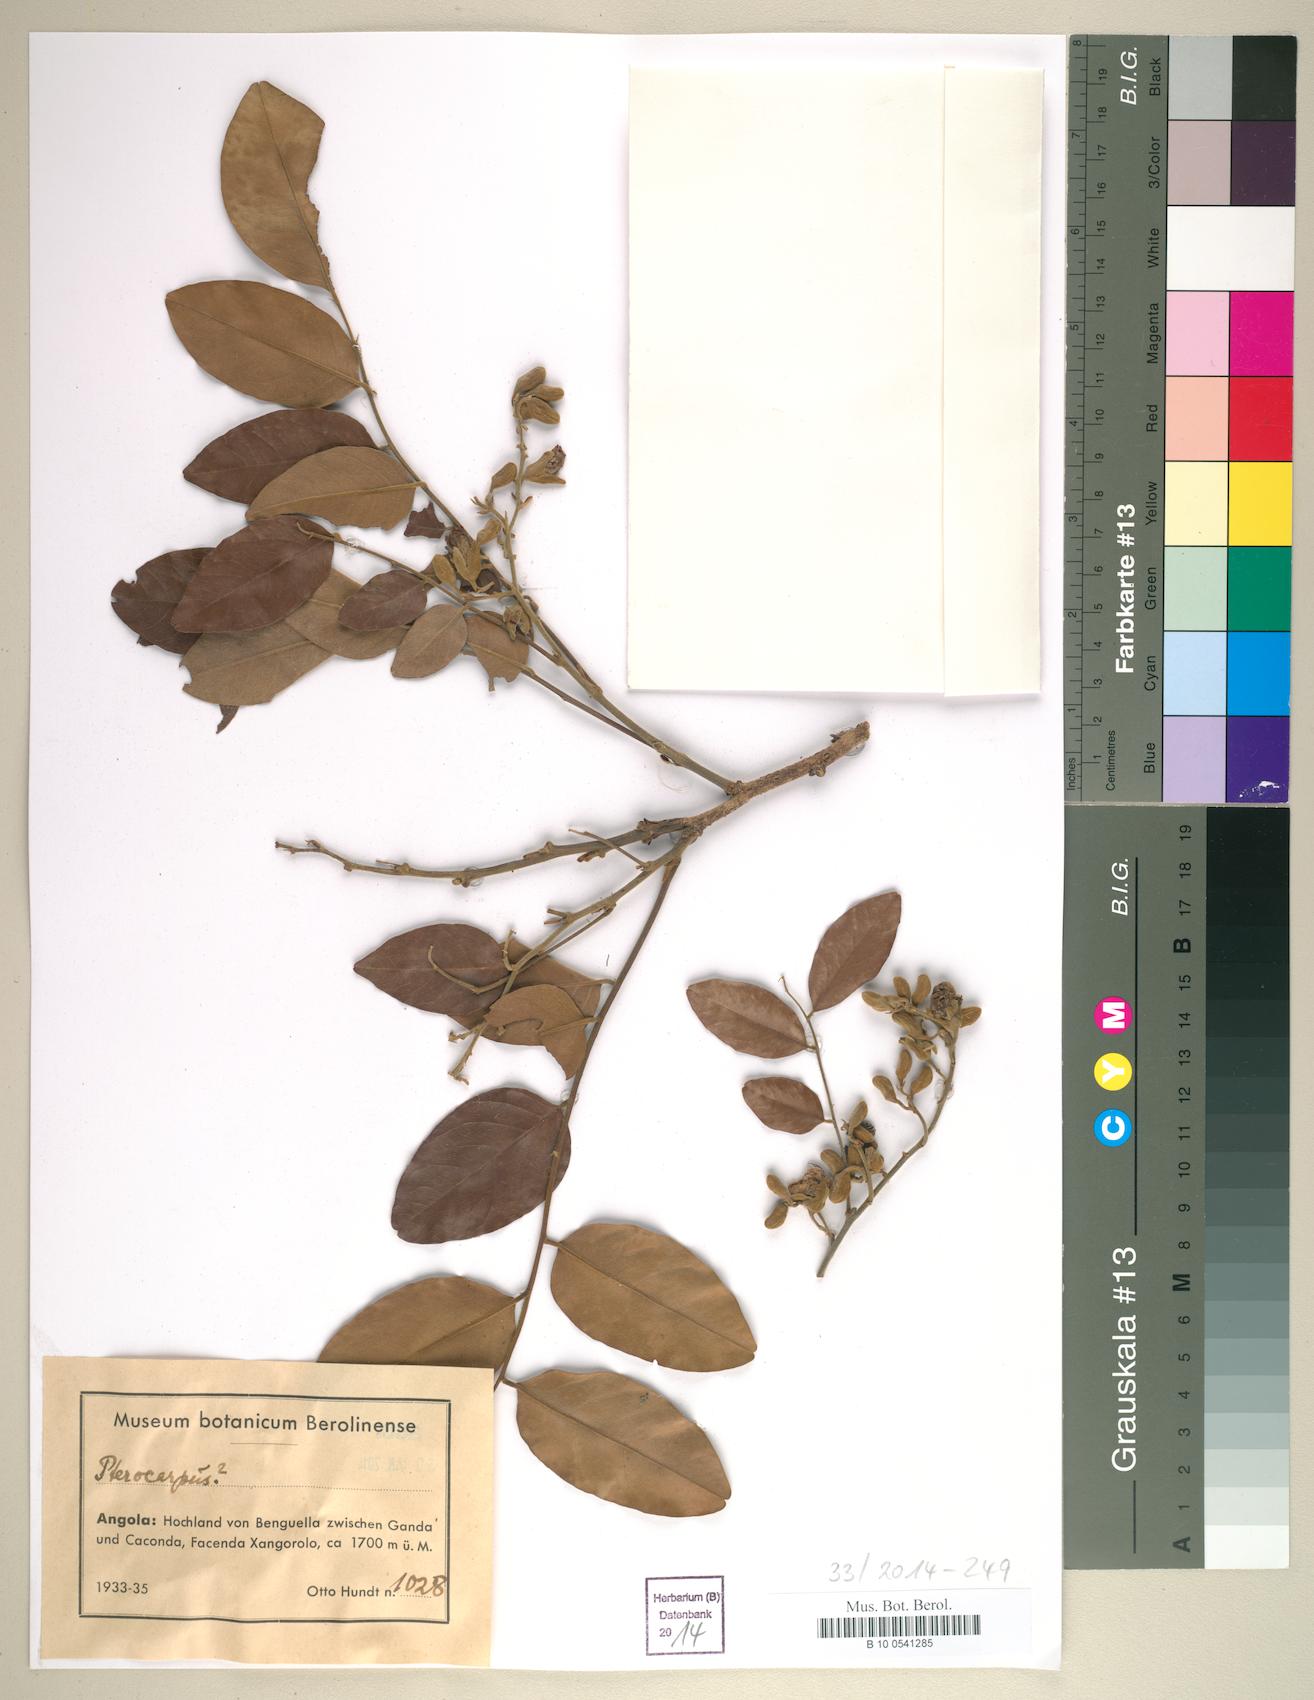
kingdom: Plantae
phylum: Tracheophyta
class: Magnoliopsida
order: Fabales
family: Fabaceae
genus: Pterocarpus
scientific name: Pterocarpus
